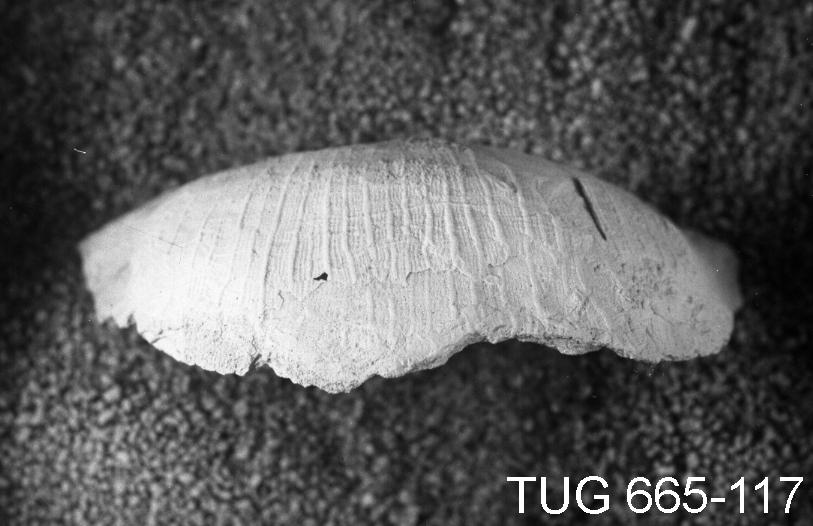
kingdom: Animalia
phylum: Brachiopoda
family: Strophomenidae
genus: Geniculina
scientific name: Geniculina Strophomena pseudoalternata
